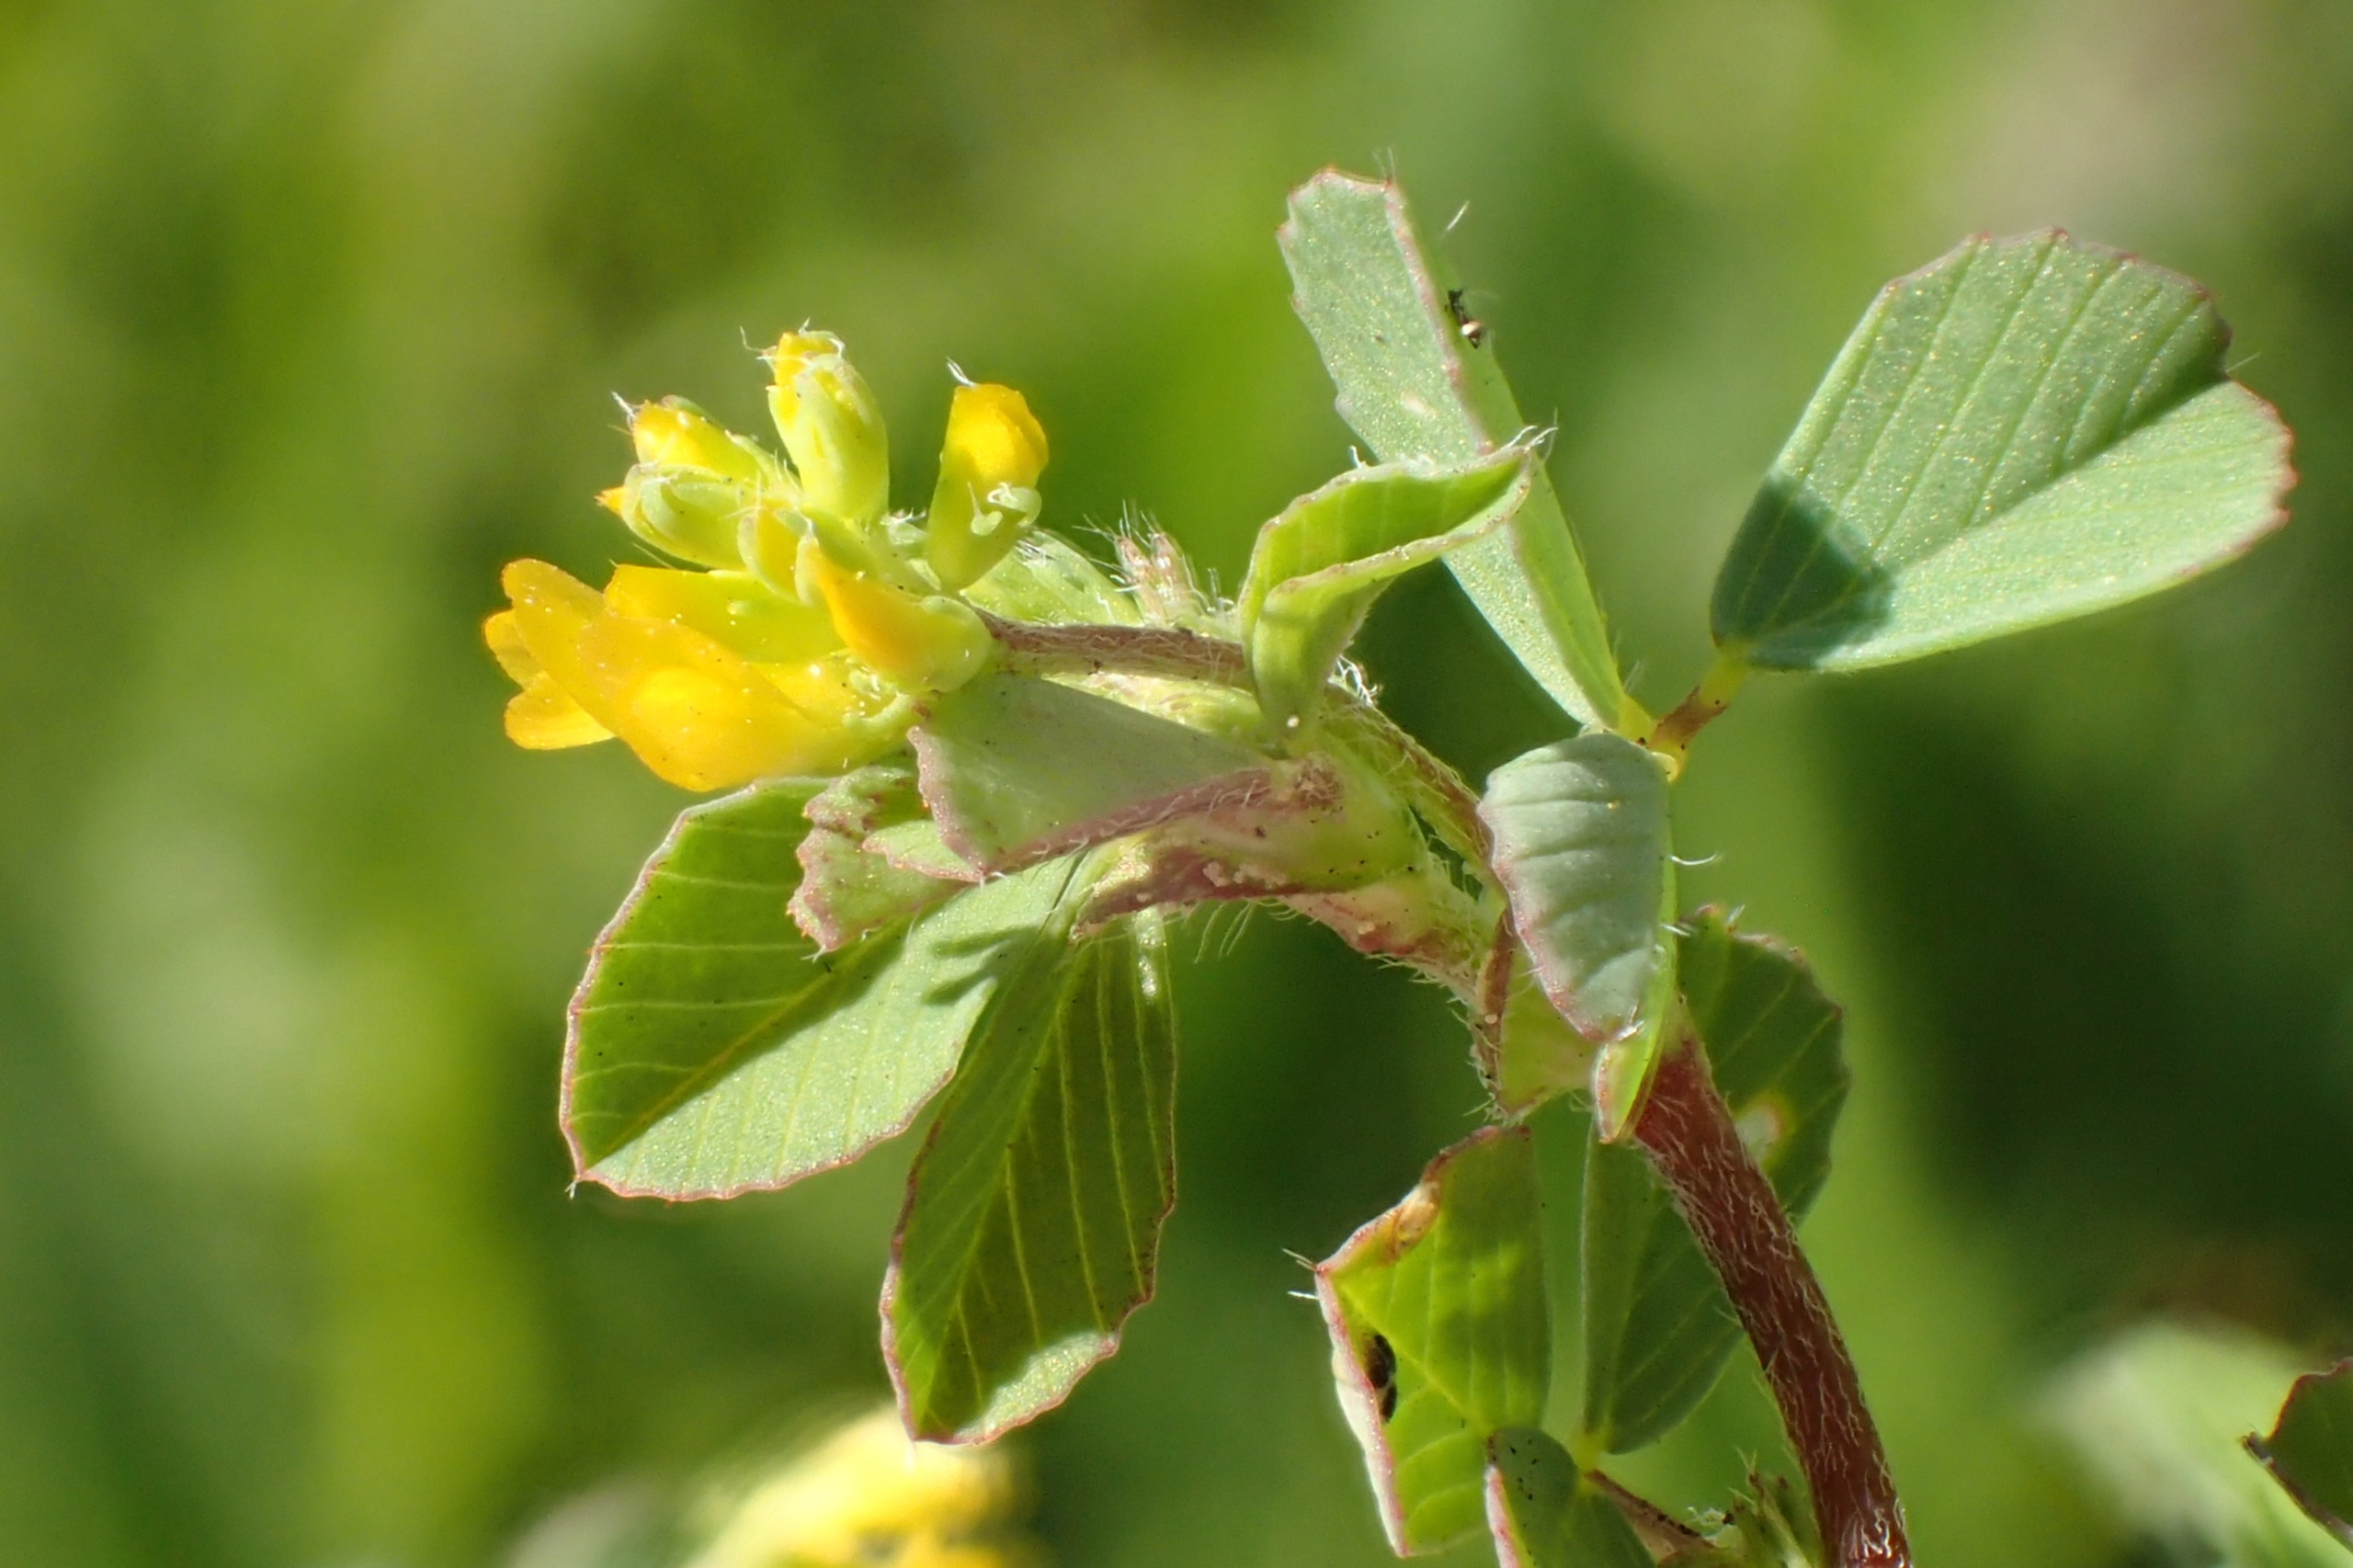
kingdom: Plantae
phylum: Tracheophyta
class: Magnoliopsida
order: Fabales
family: Fabaceae
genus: Trifolium
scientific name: Trifolium dubium
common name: Fin kløver
